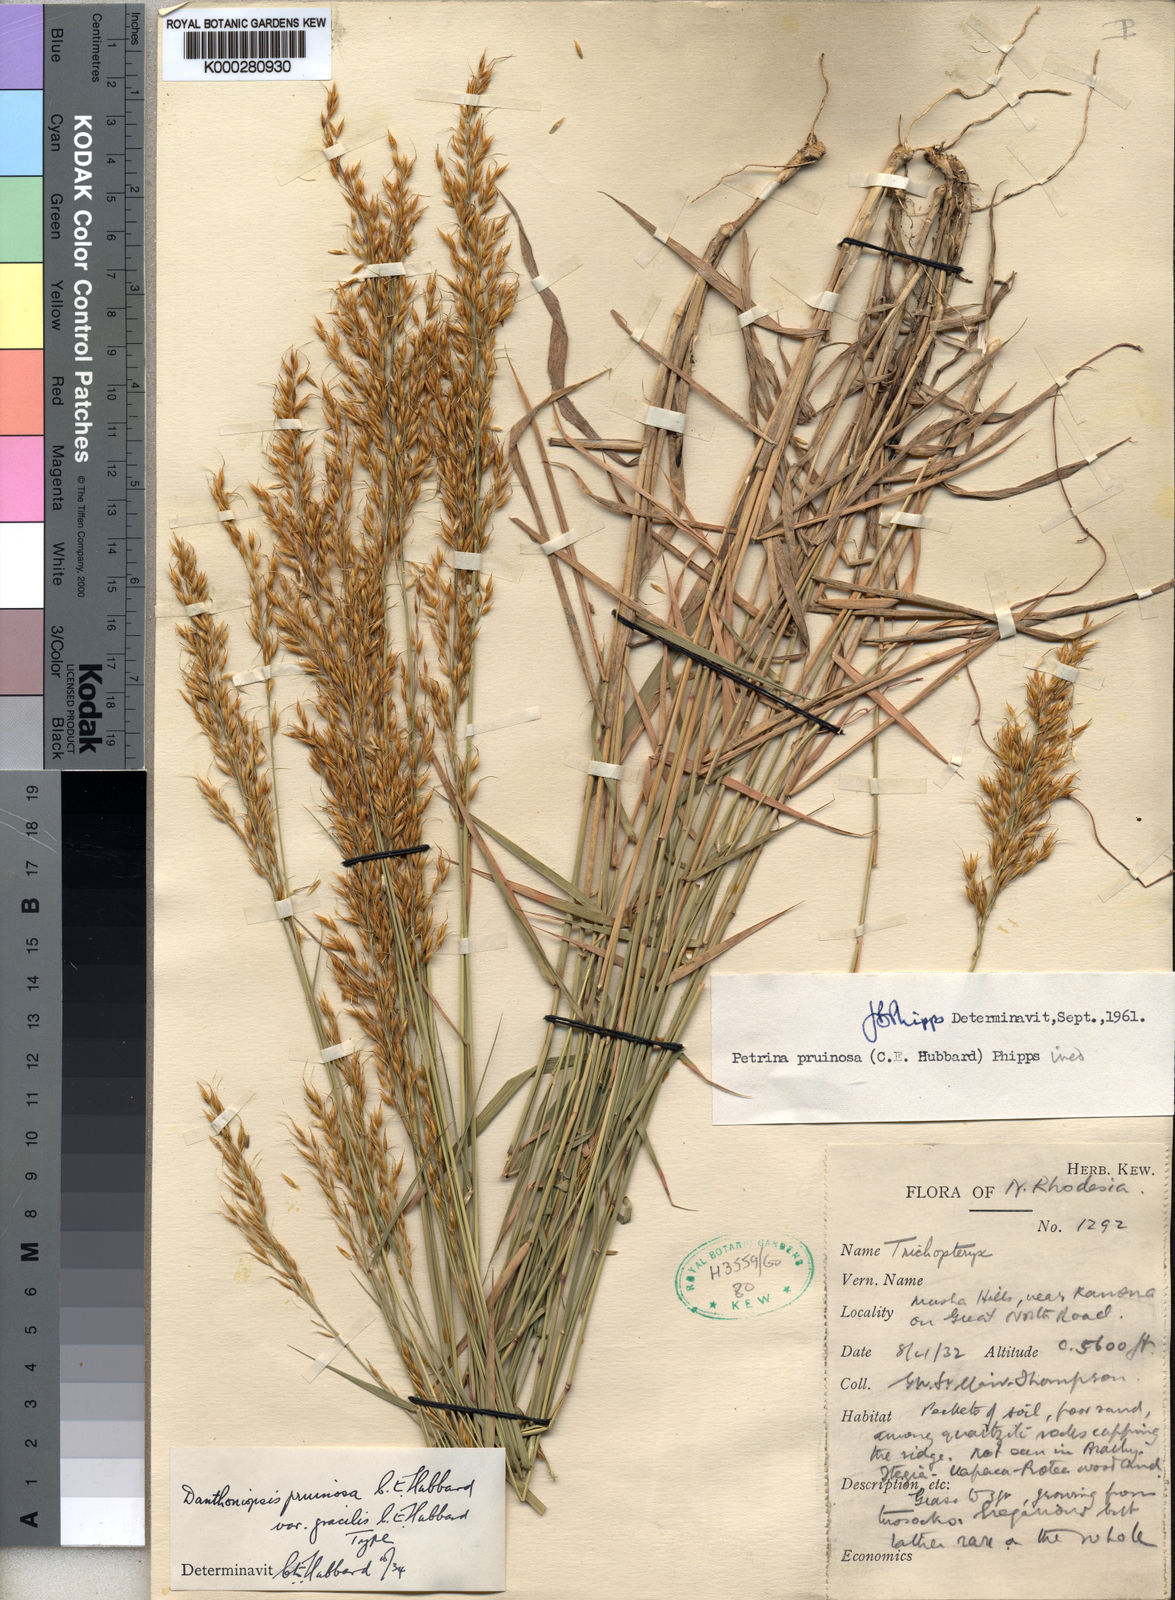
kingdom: Plantae
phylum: Tracheophyta
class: Liliopsida
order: Poales
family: Poaceae
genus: Danthoniopsis
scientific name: Danthoniopsis pruinosa
